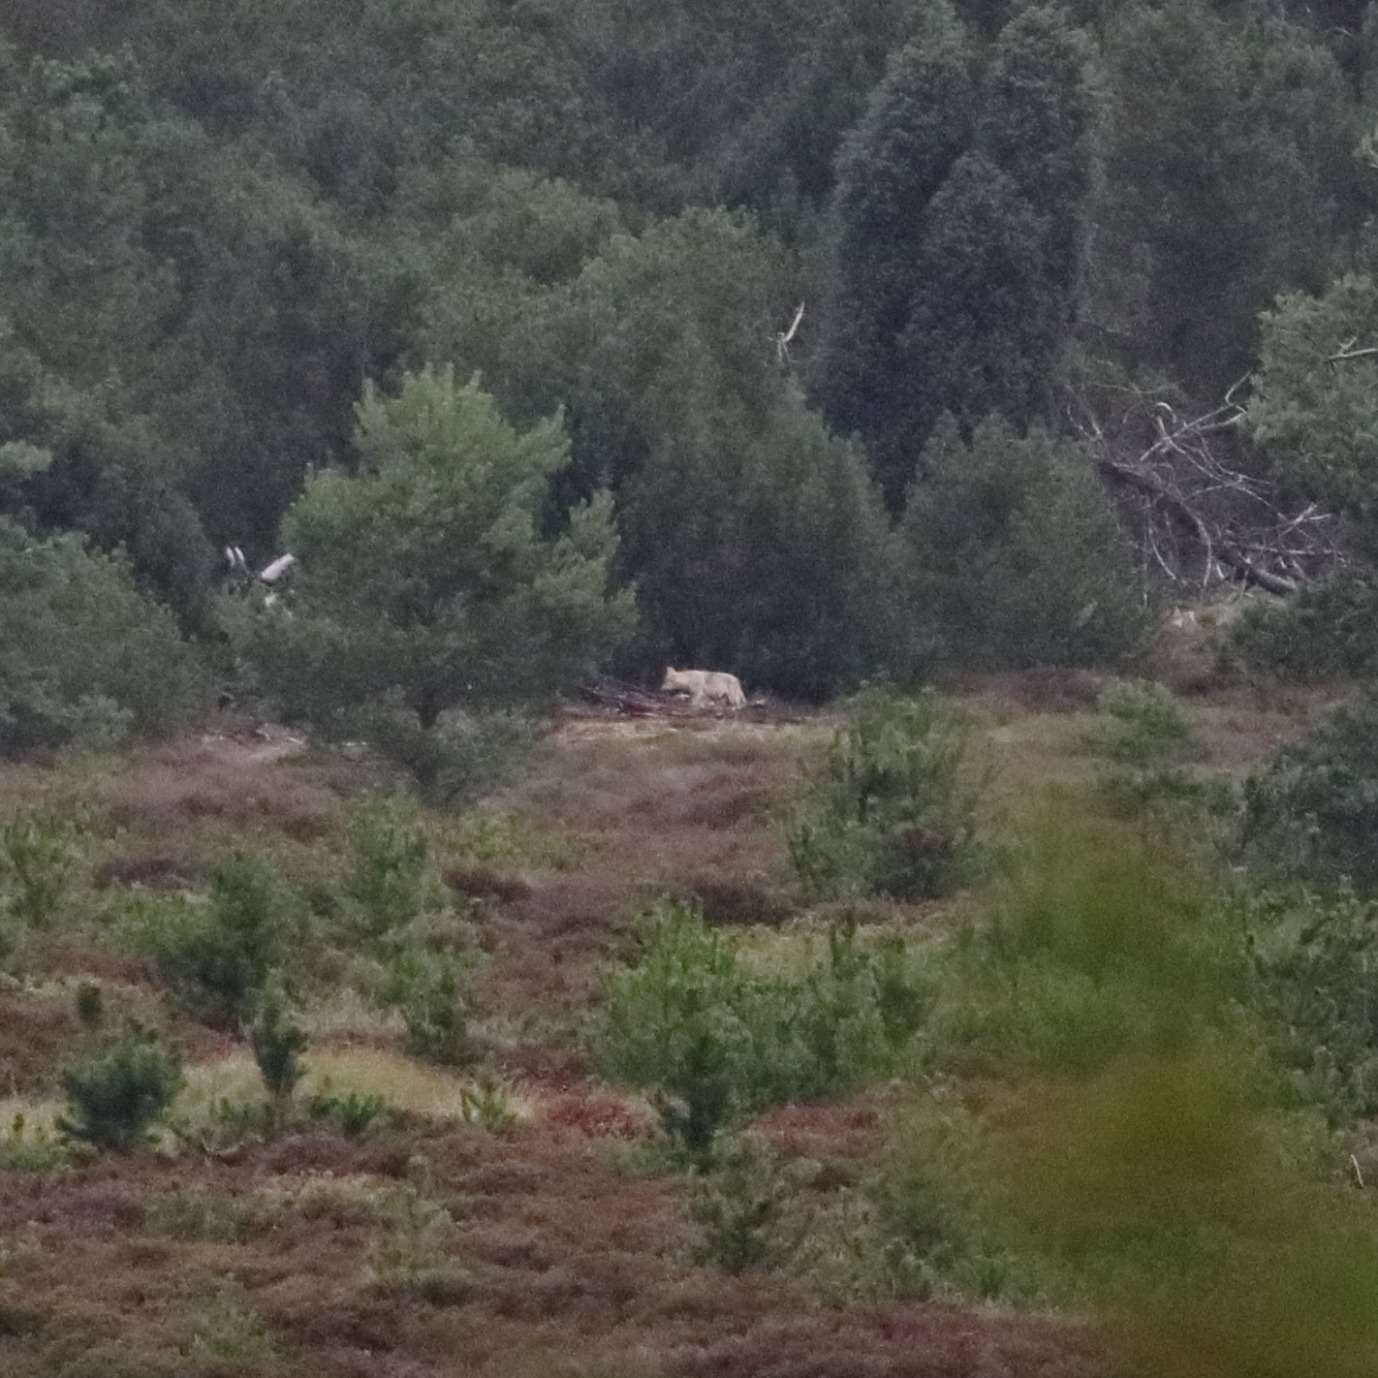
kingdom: Animalia
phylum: Chordata
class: Mammalia
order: Carnivora
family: Canidae
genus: Canis
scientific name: Canis lupus
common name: Ulv
